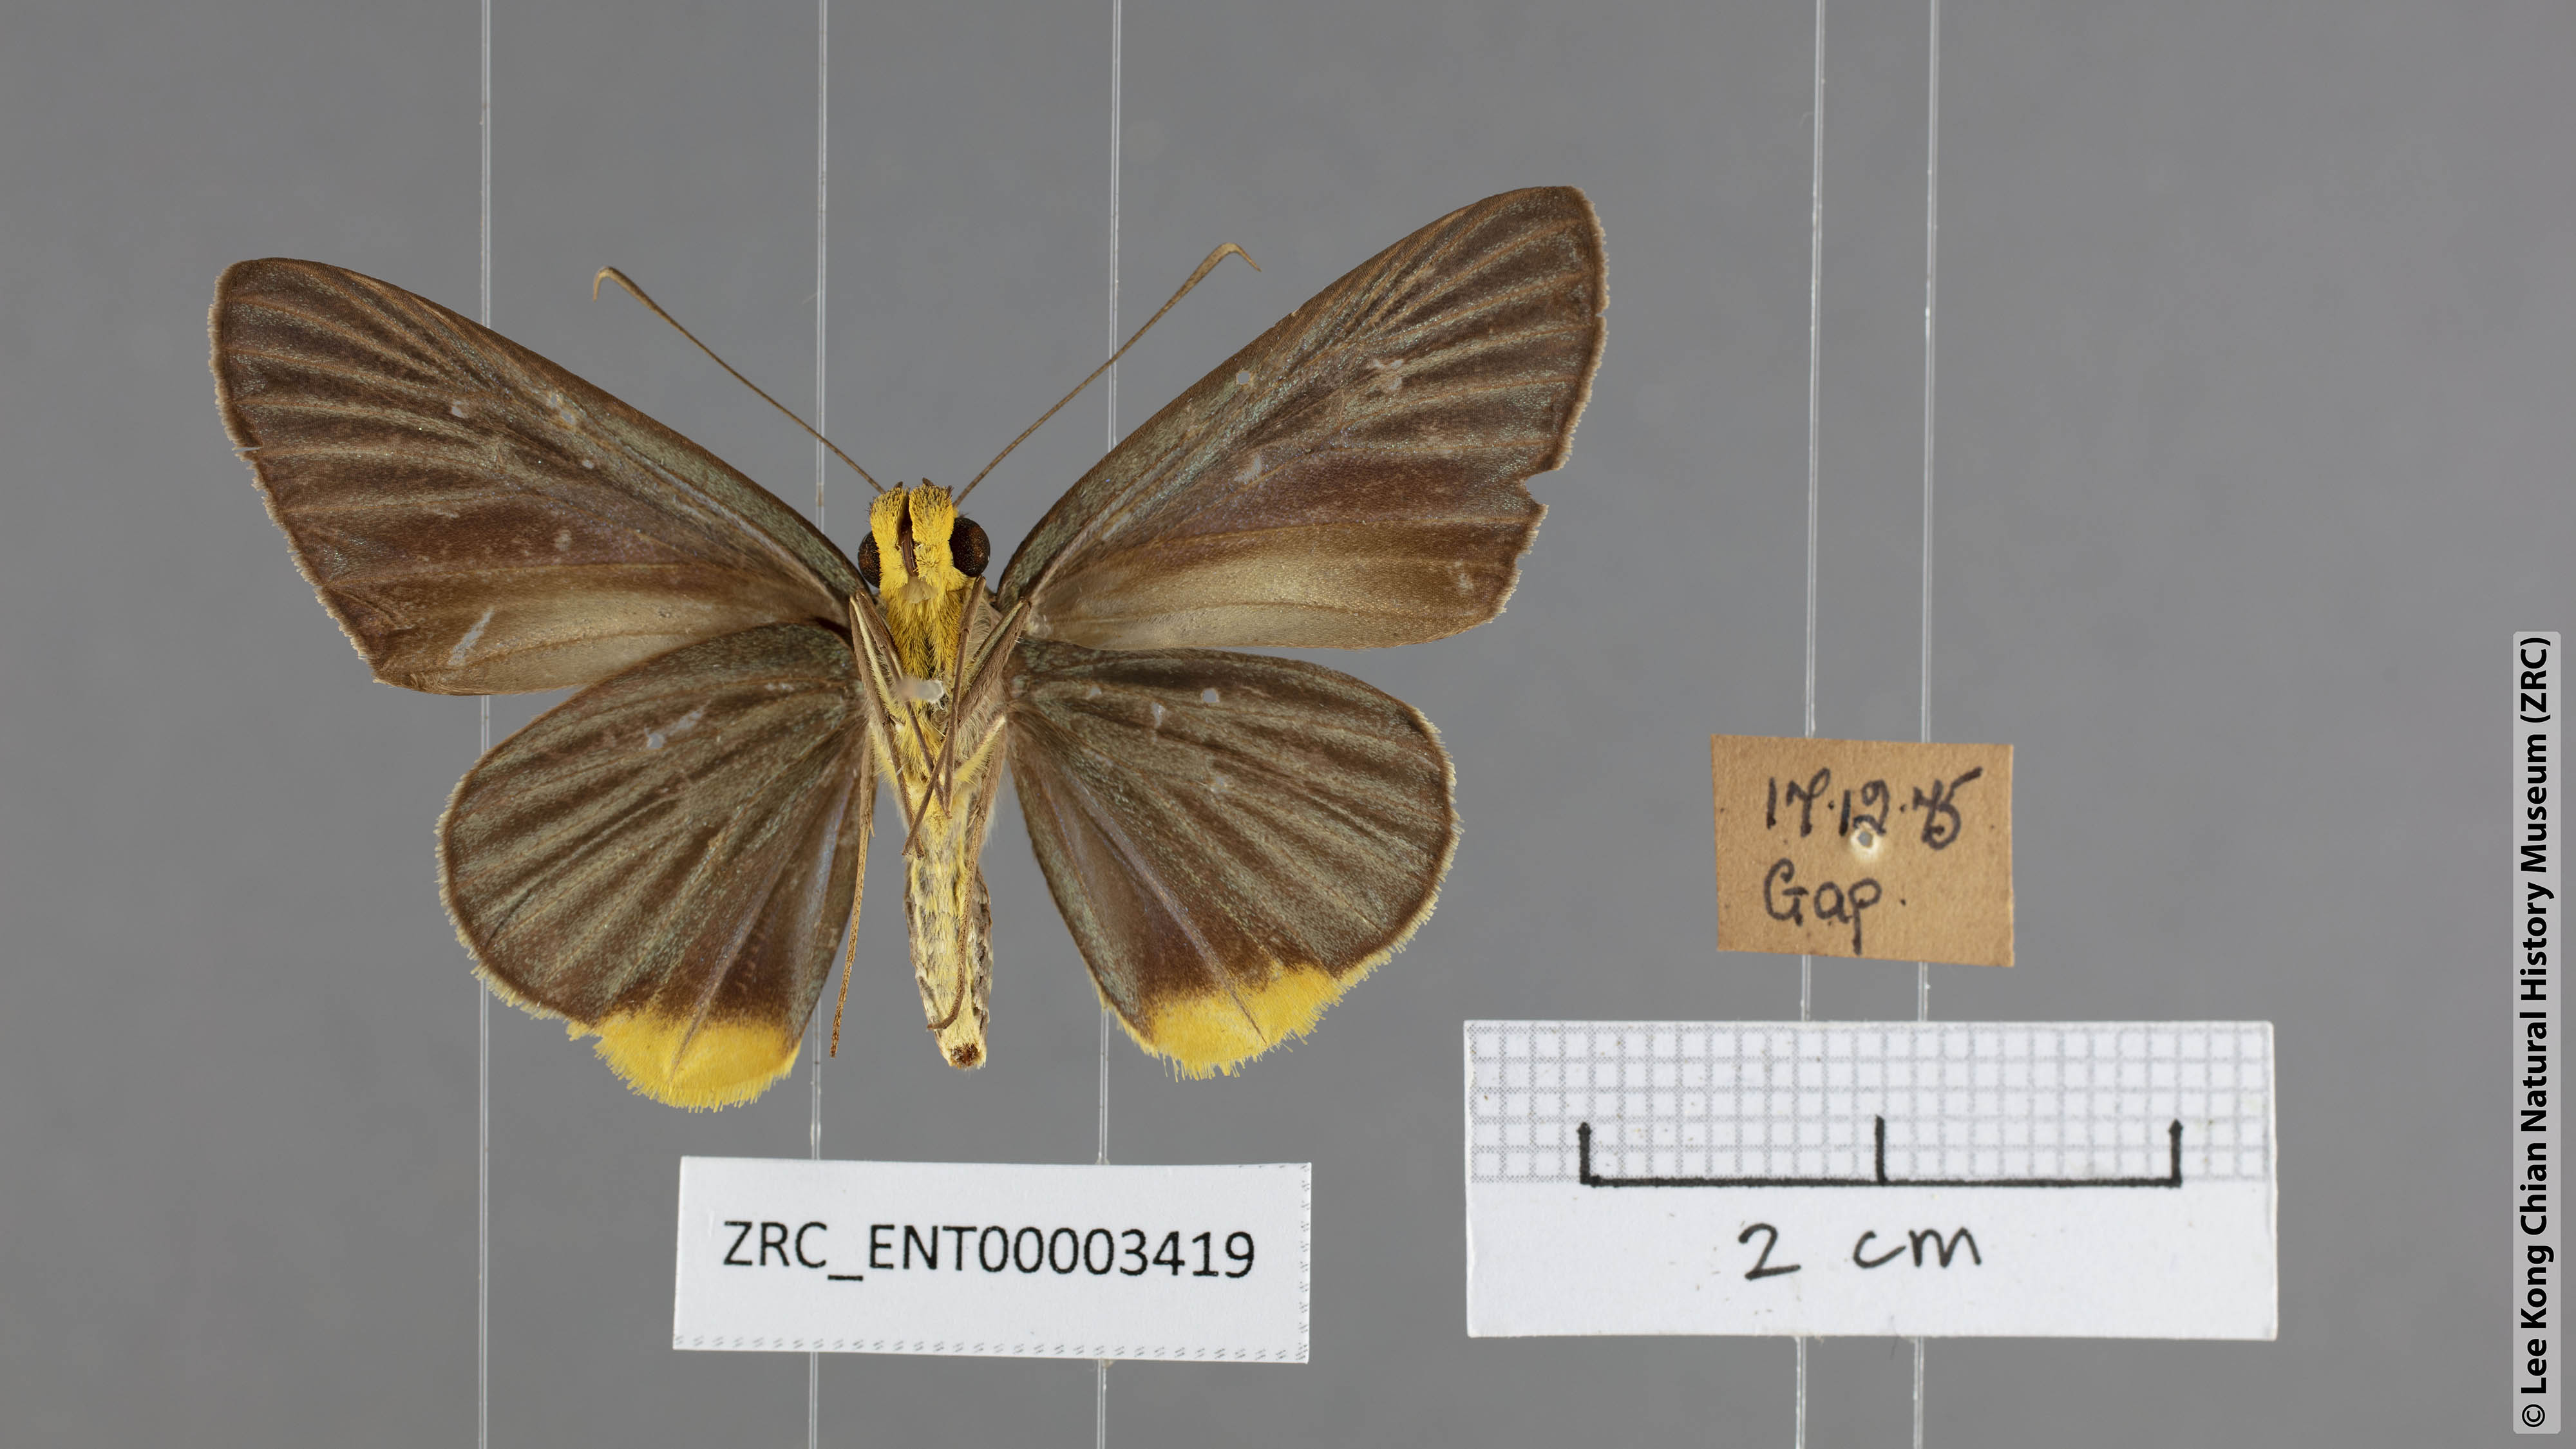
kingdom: Animalia
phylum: Arthropoda
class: Insecta
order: Lepidoptera
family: Hesperiidae
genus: Pirdana
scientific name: Pirdana hyela
